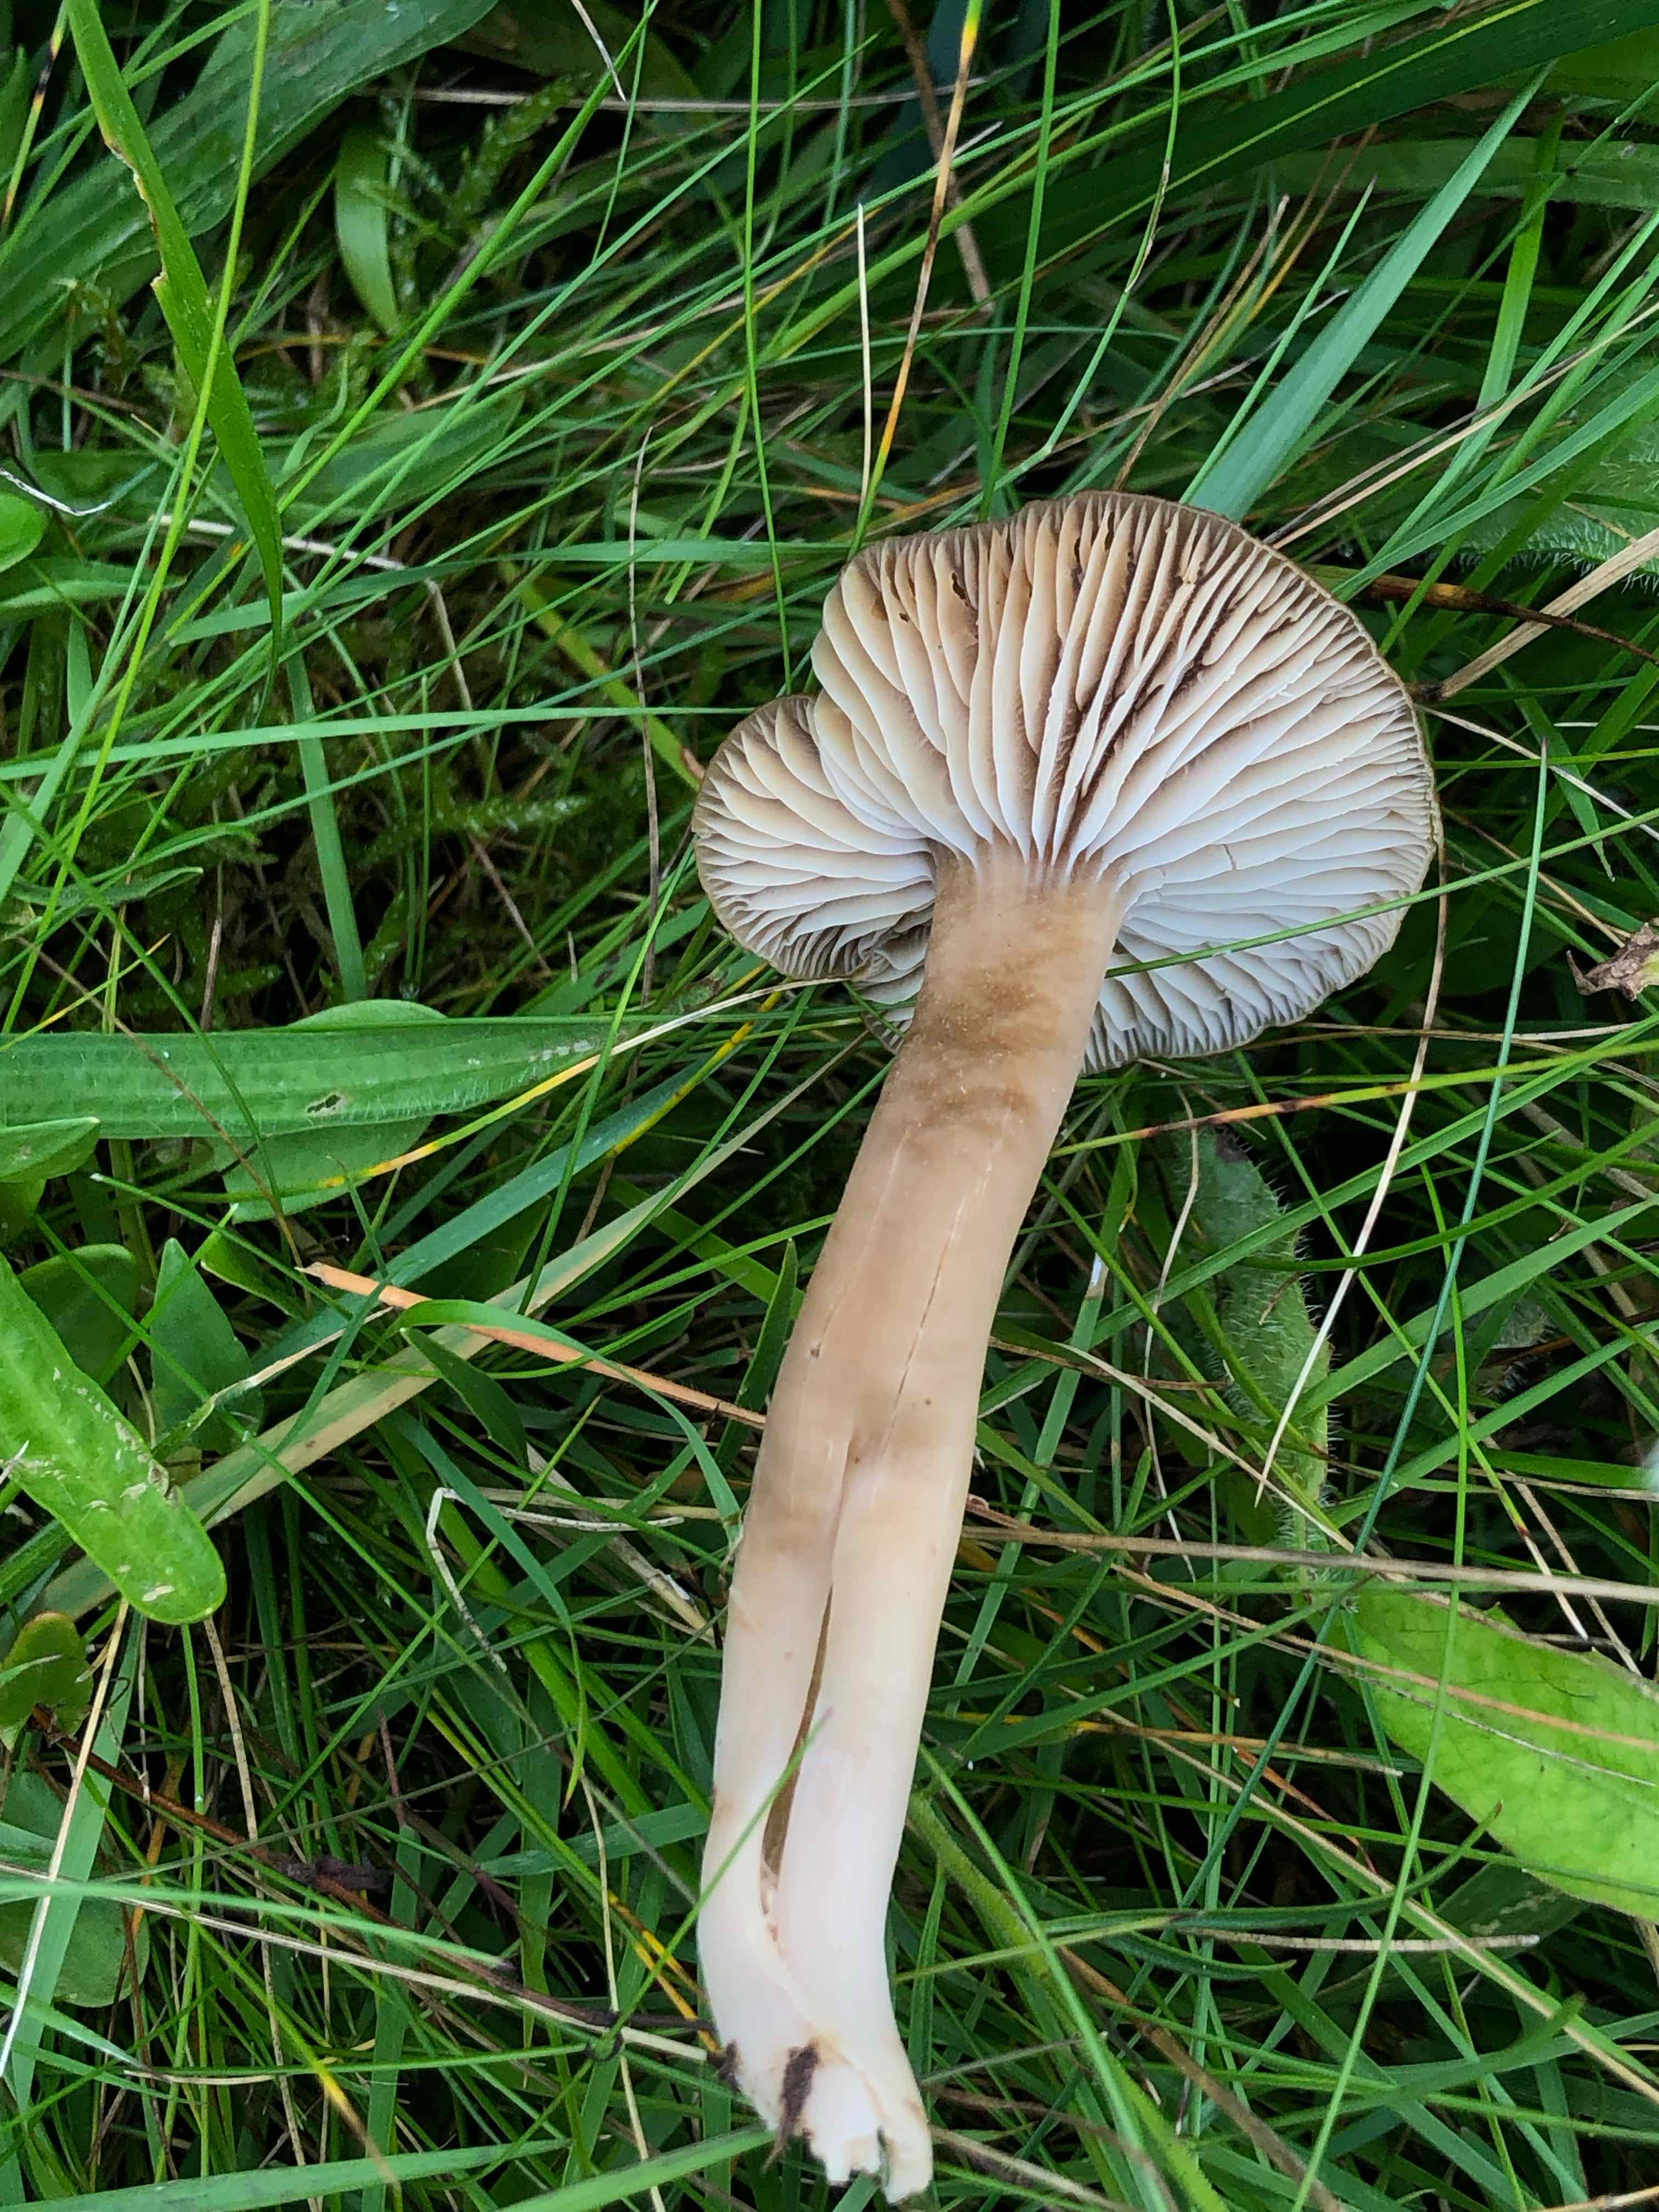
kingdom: Fungi
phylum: Basidiomycota
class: Agaricomycetes
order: Agaricales
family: Clavariaceae
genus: Camarophyllopsis
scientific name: Camarophyllopsis schulzeri
